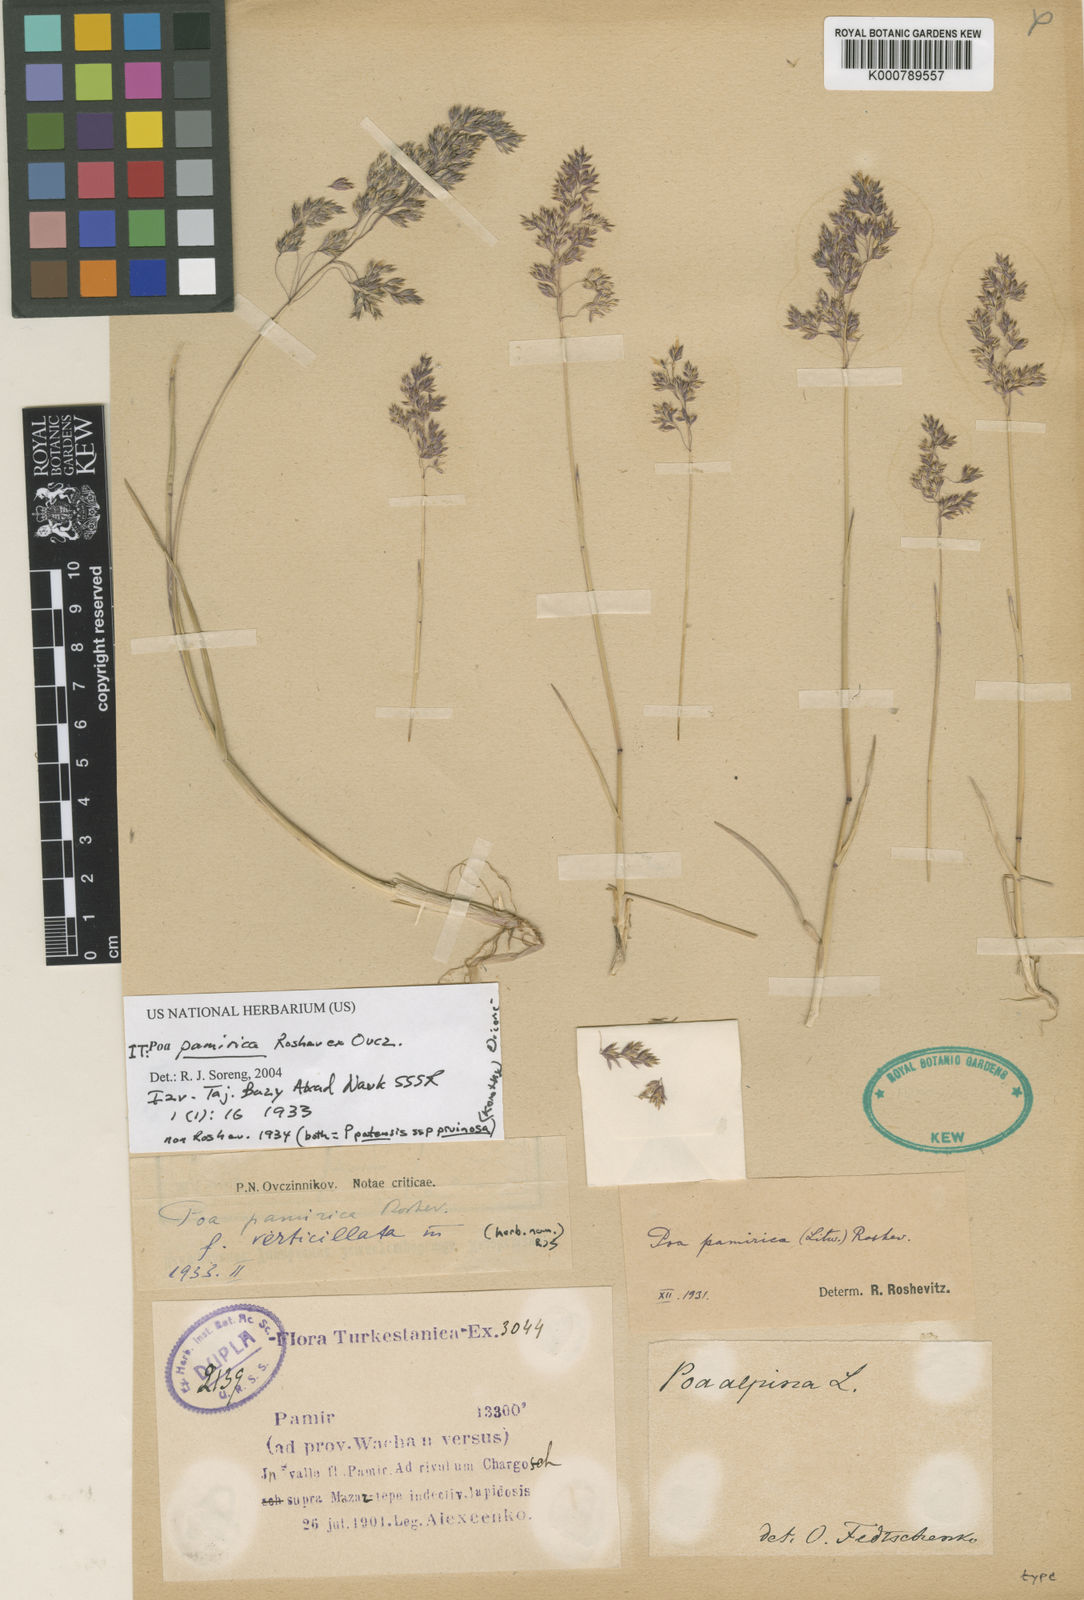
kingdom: Plantae
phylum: Tracheophyta
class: Liliopsida
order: Poales
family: Poaceae
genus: Poa
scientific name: Poa pratensis
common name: Kentucky bluegrass
